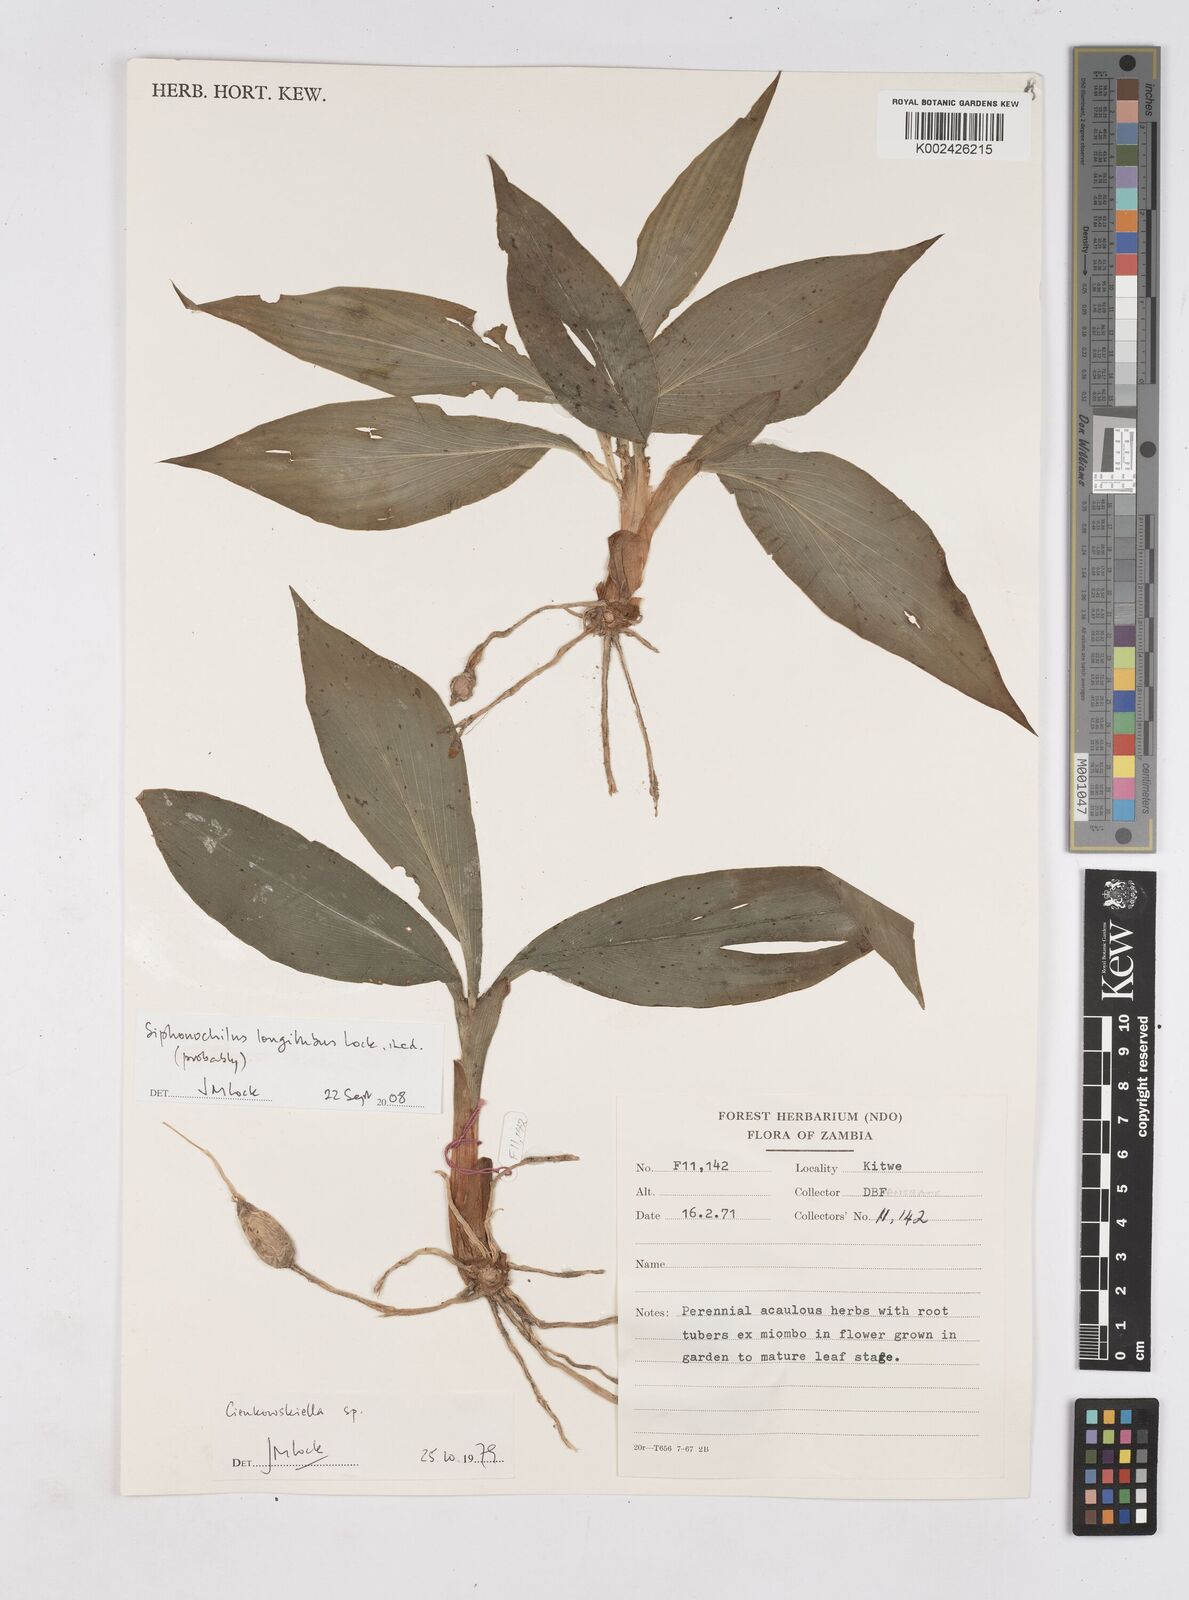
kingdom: Plantae
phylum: Tracheophyta
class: Liliopsida
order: Zingiberales
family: Zingiberaceae
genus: Siphonochilus
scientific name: Siphonochilus longitubus
